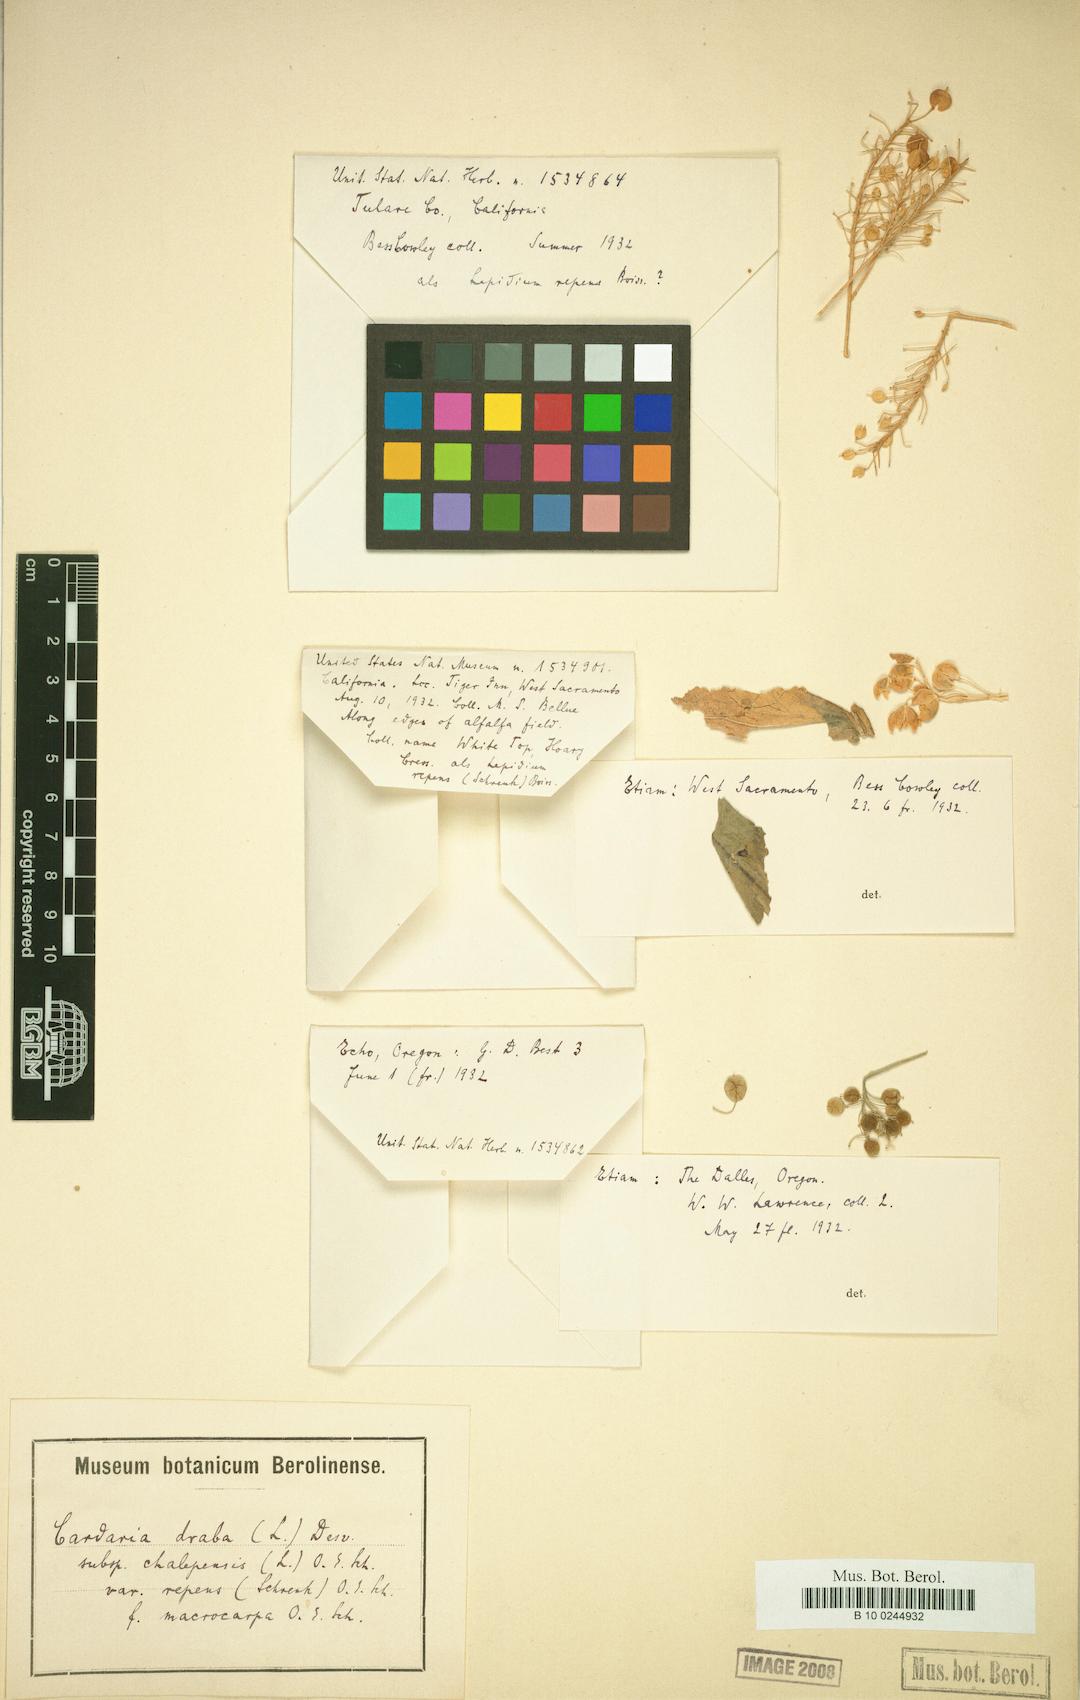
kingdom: Plantae
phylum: Tracheophyta
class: Magnoliopsida
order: Brassicales
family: Brassicaceae
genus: Lepidium
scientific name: Lepidium chalepense
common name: Orbicular whitetop
